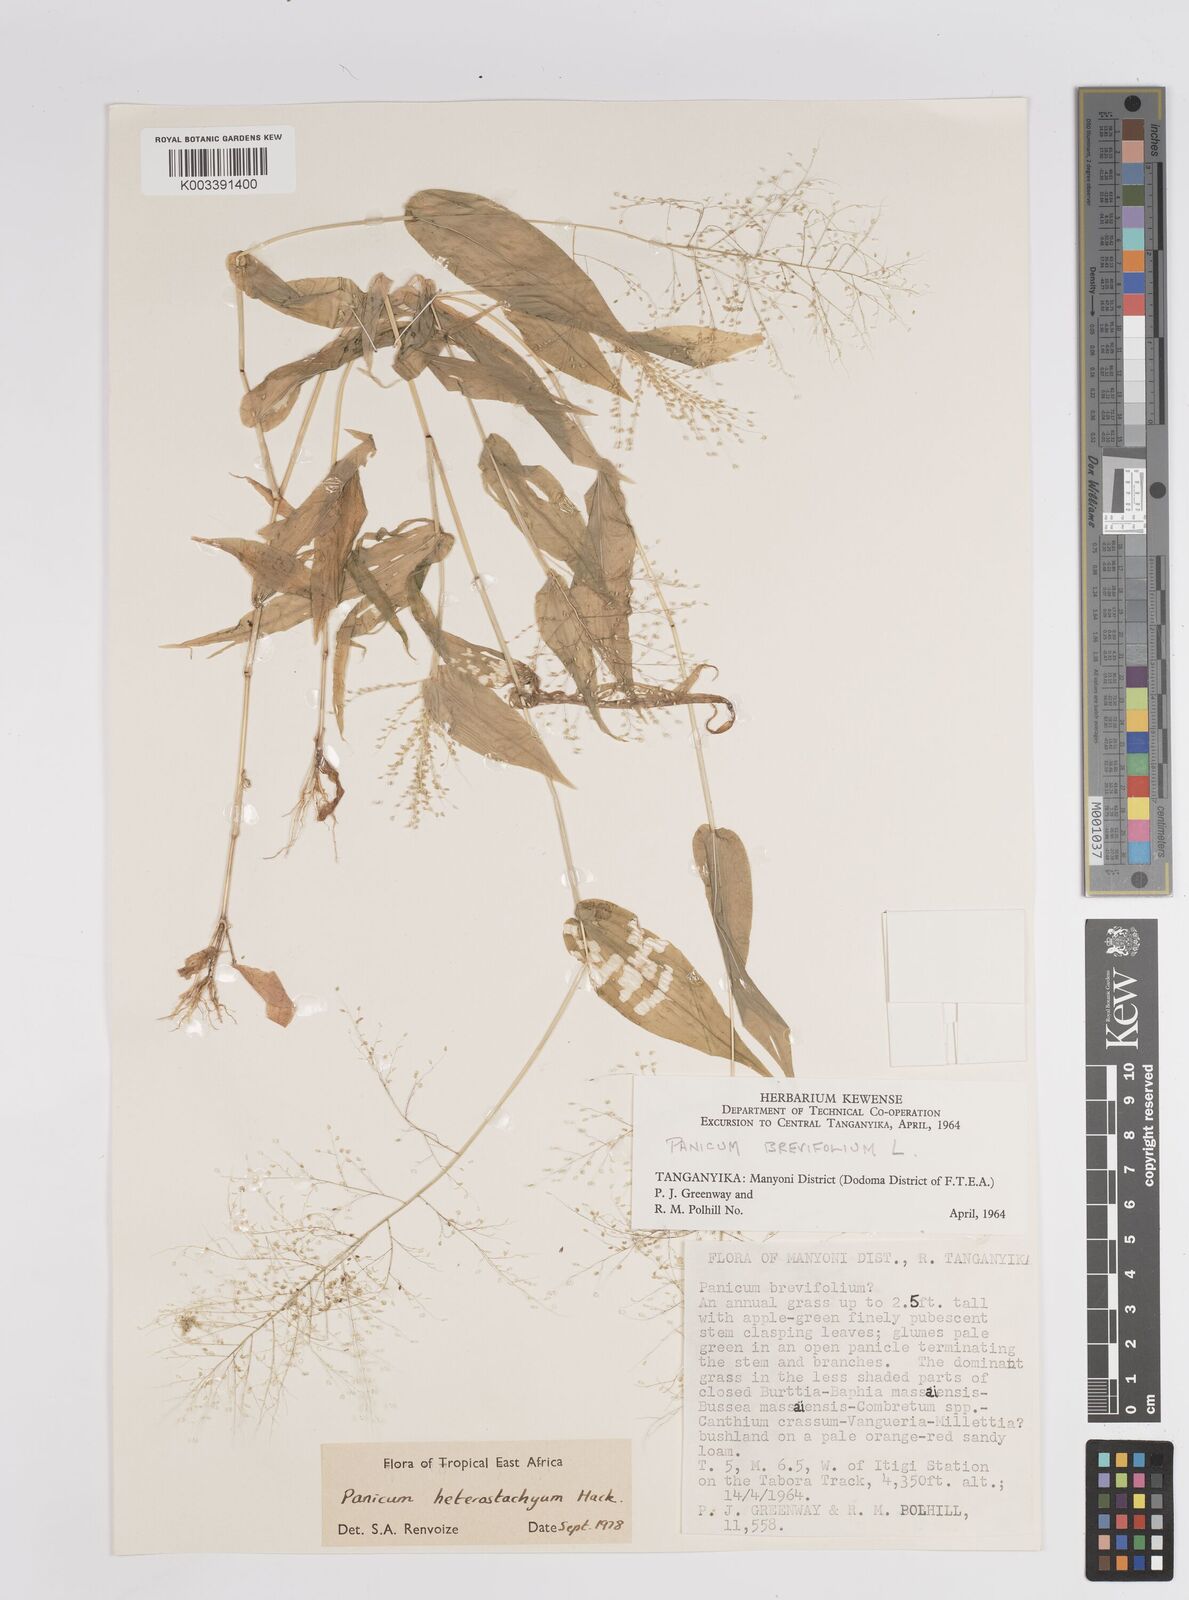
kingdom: Plantae
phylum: Tracheophyta
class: Liliopsida
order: Poales
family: Poaceae
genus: Panicum
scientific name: Panicum hirtum
